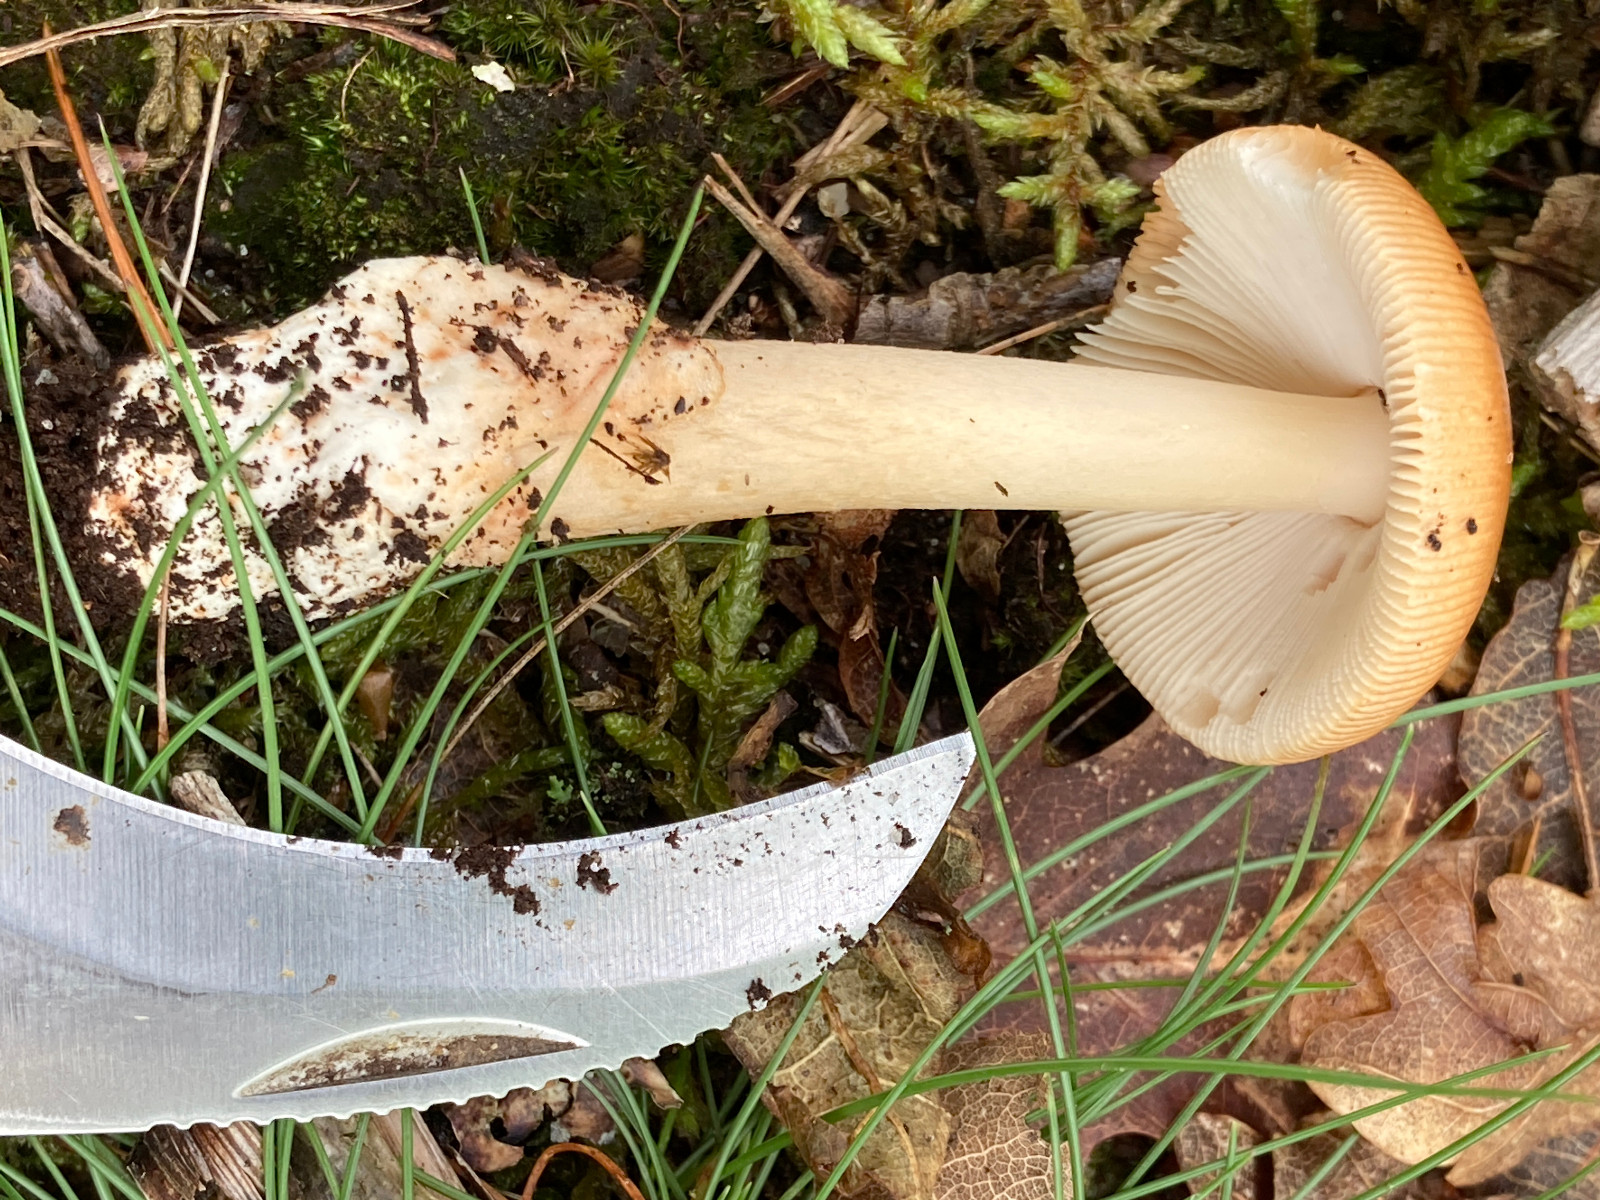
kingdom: Fungi
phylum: Basidiomycota
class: Agaricomycetes
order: Agaricales
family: Amanitaceae
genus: Amanita
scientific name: Amanita fulva
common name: brun kam-fluesvamp
